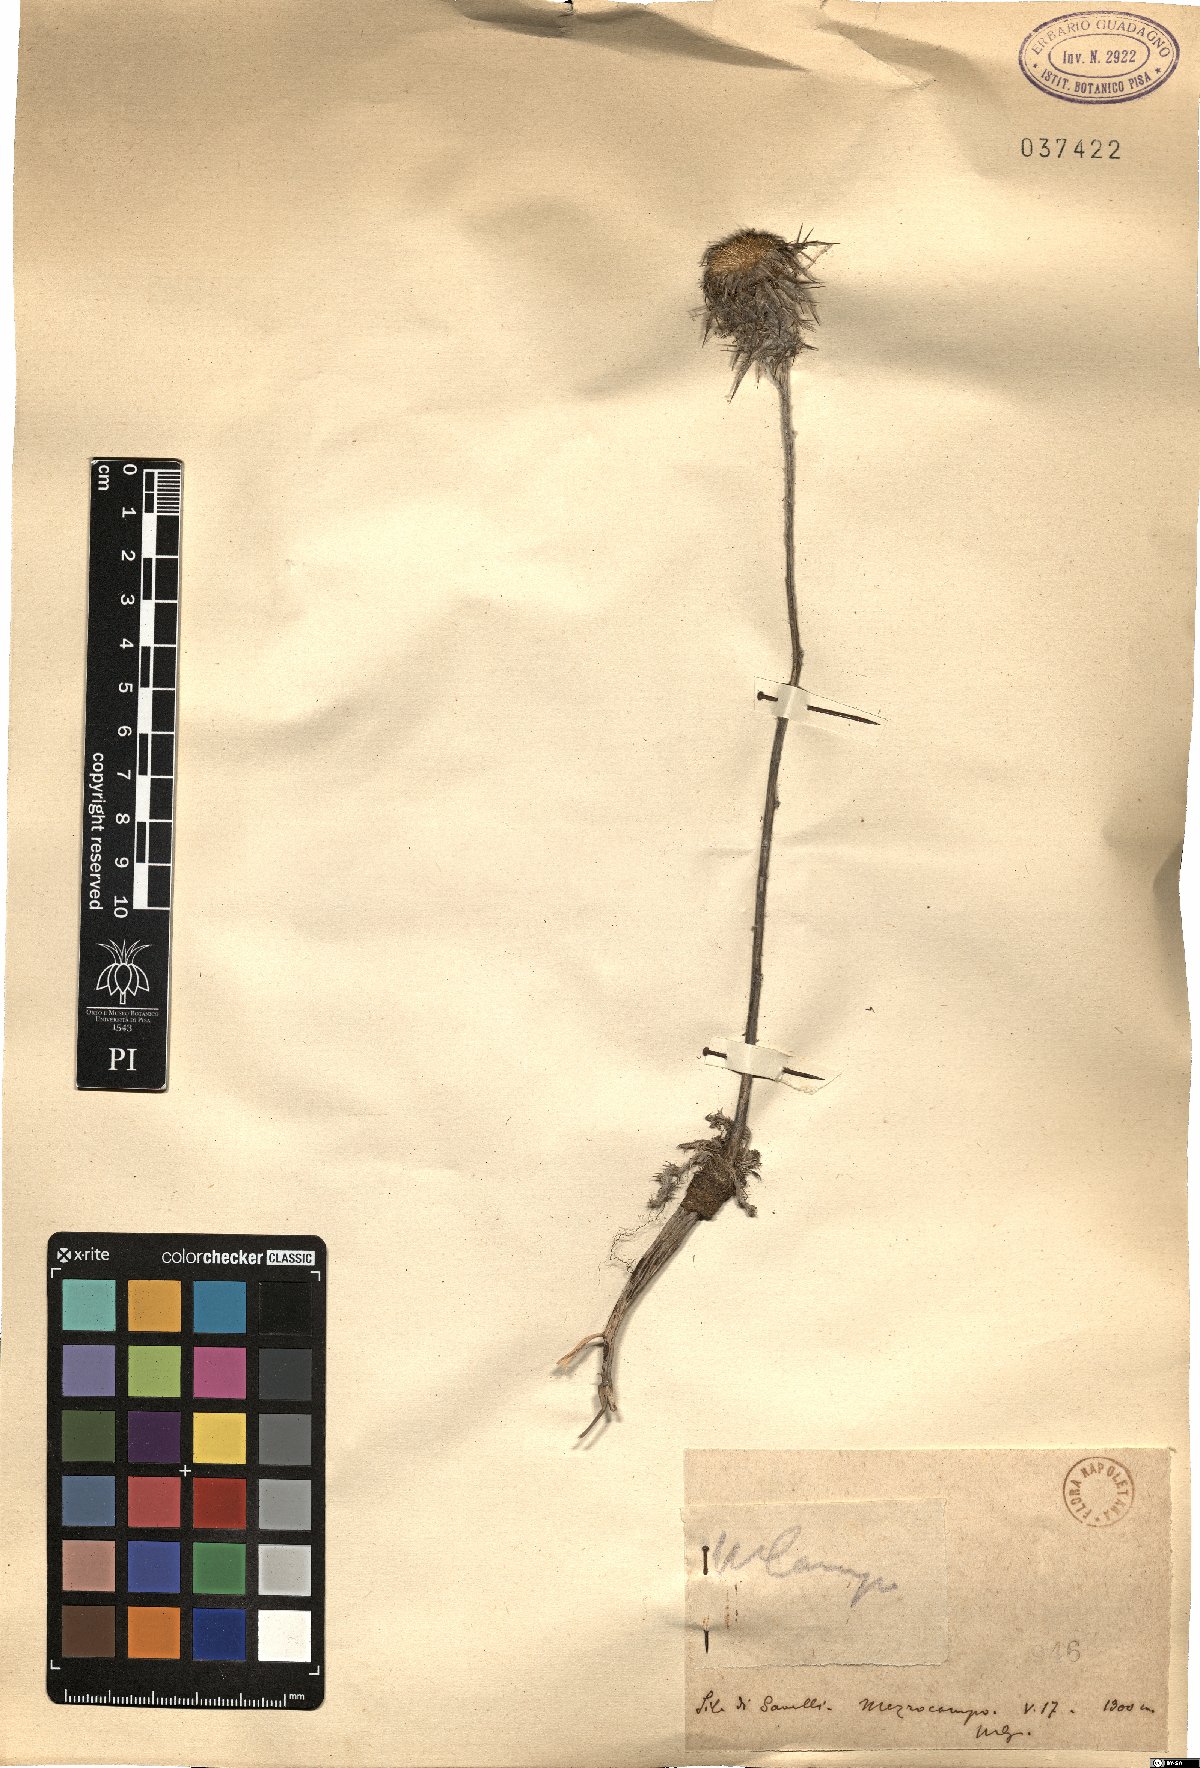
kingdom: Plantae
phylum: Tracheophyta
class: Magnoliopsida
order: Asterales
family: Asteraceae
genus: Carlina
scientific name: Carlina
